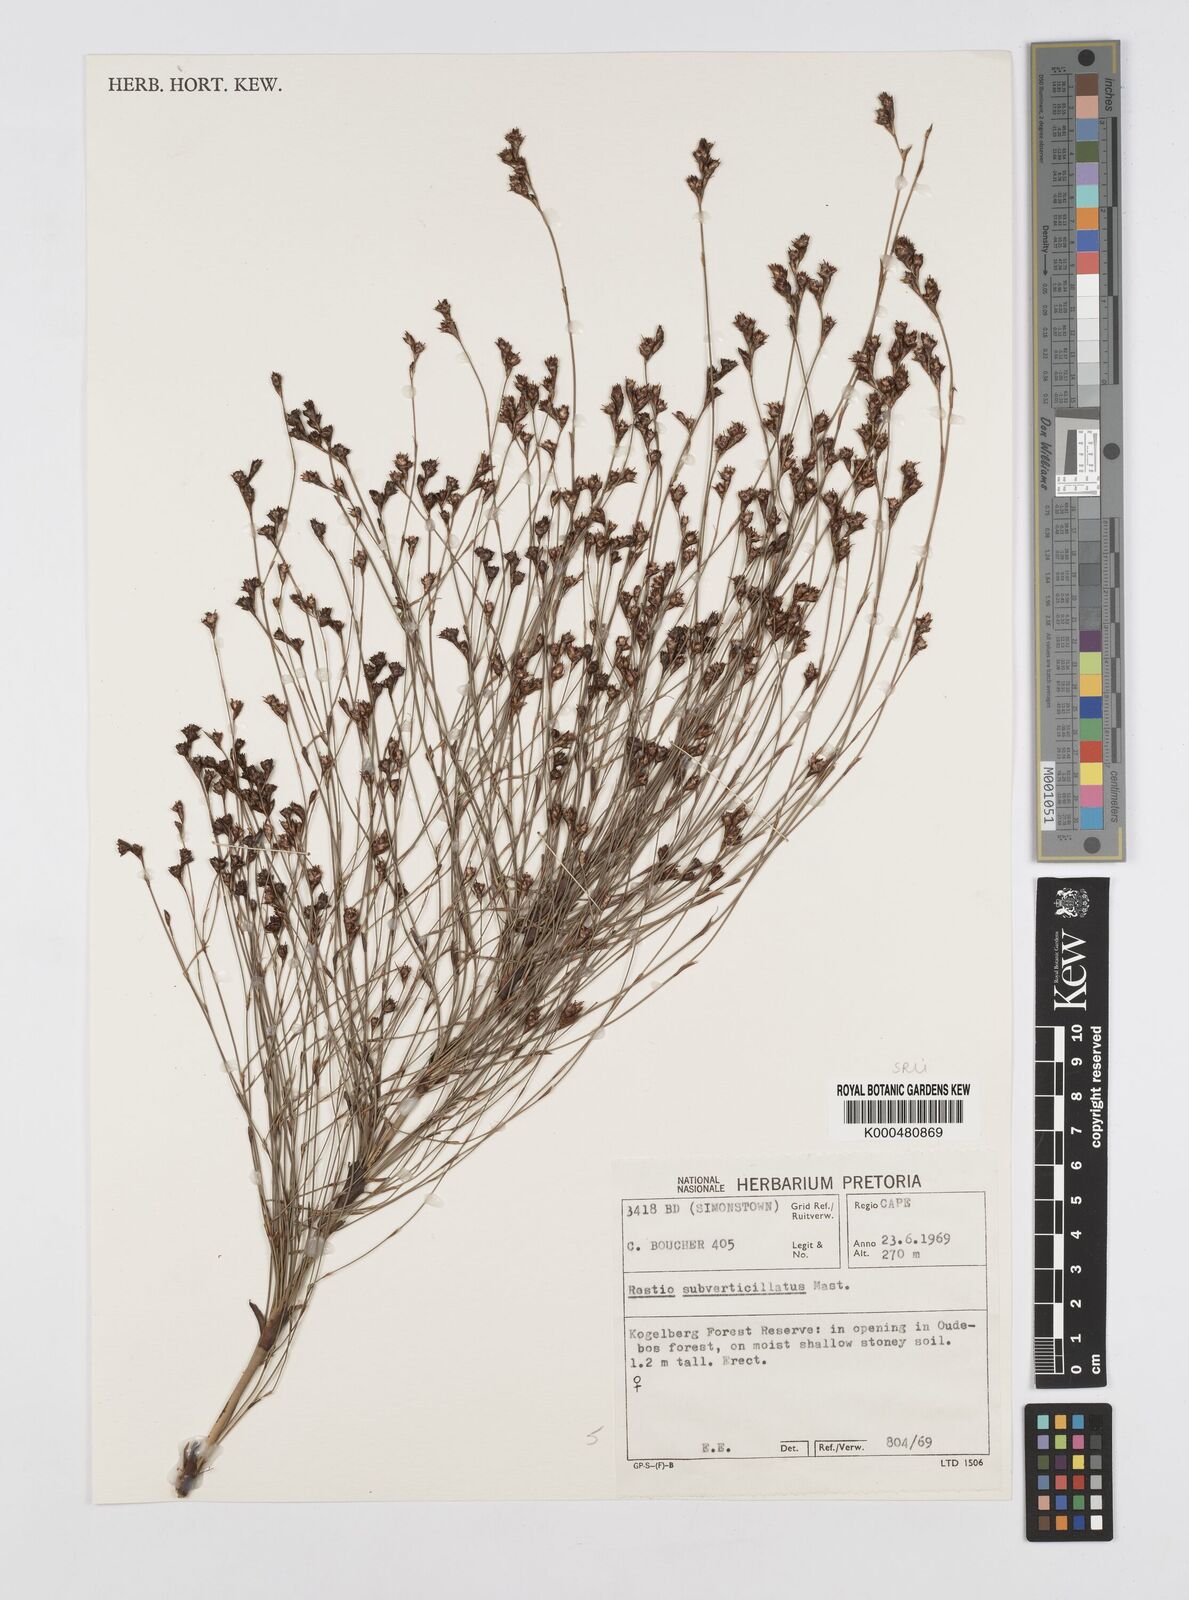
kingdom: Plantae
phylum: Tracheophyta
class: Liliopsida
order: Poales
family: Restionaceae
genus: Restio
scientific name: Restio subverticillatus
